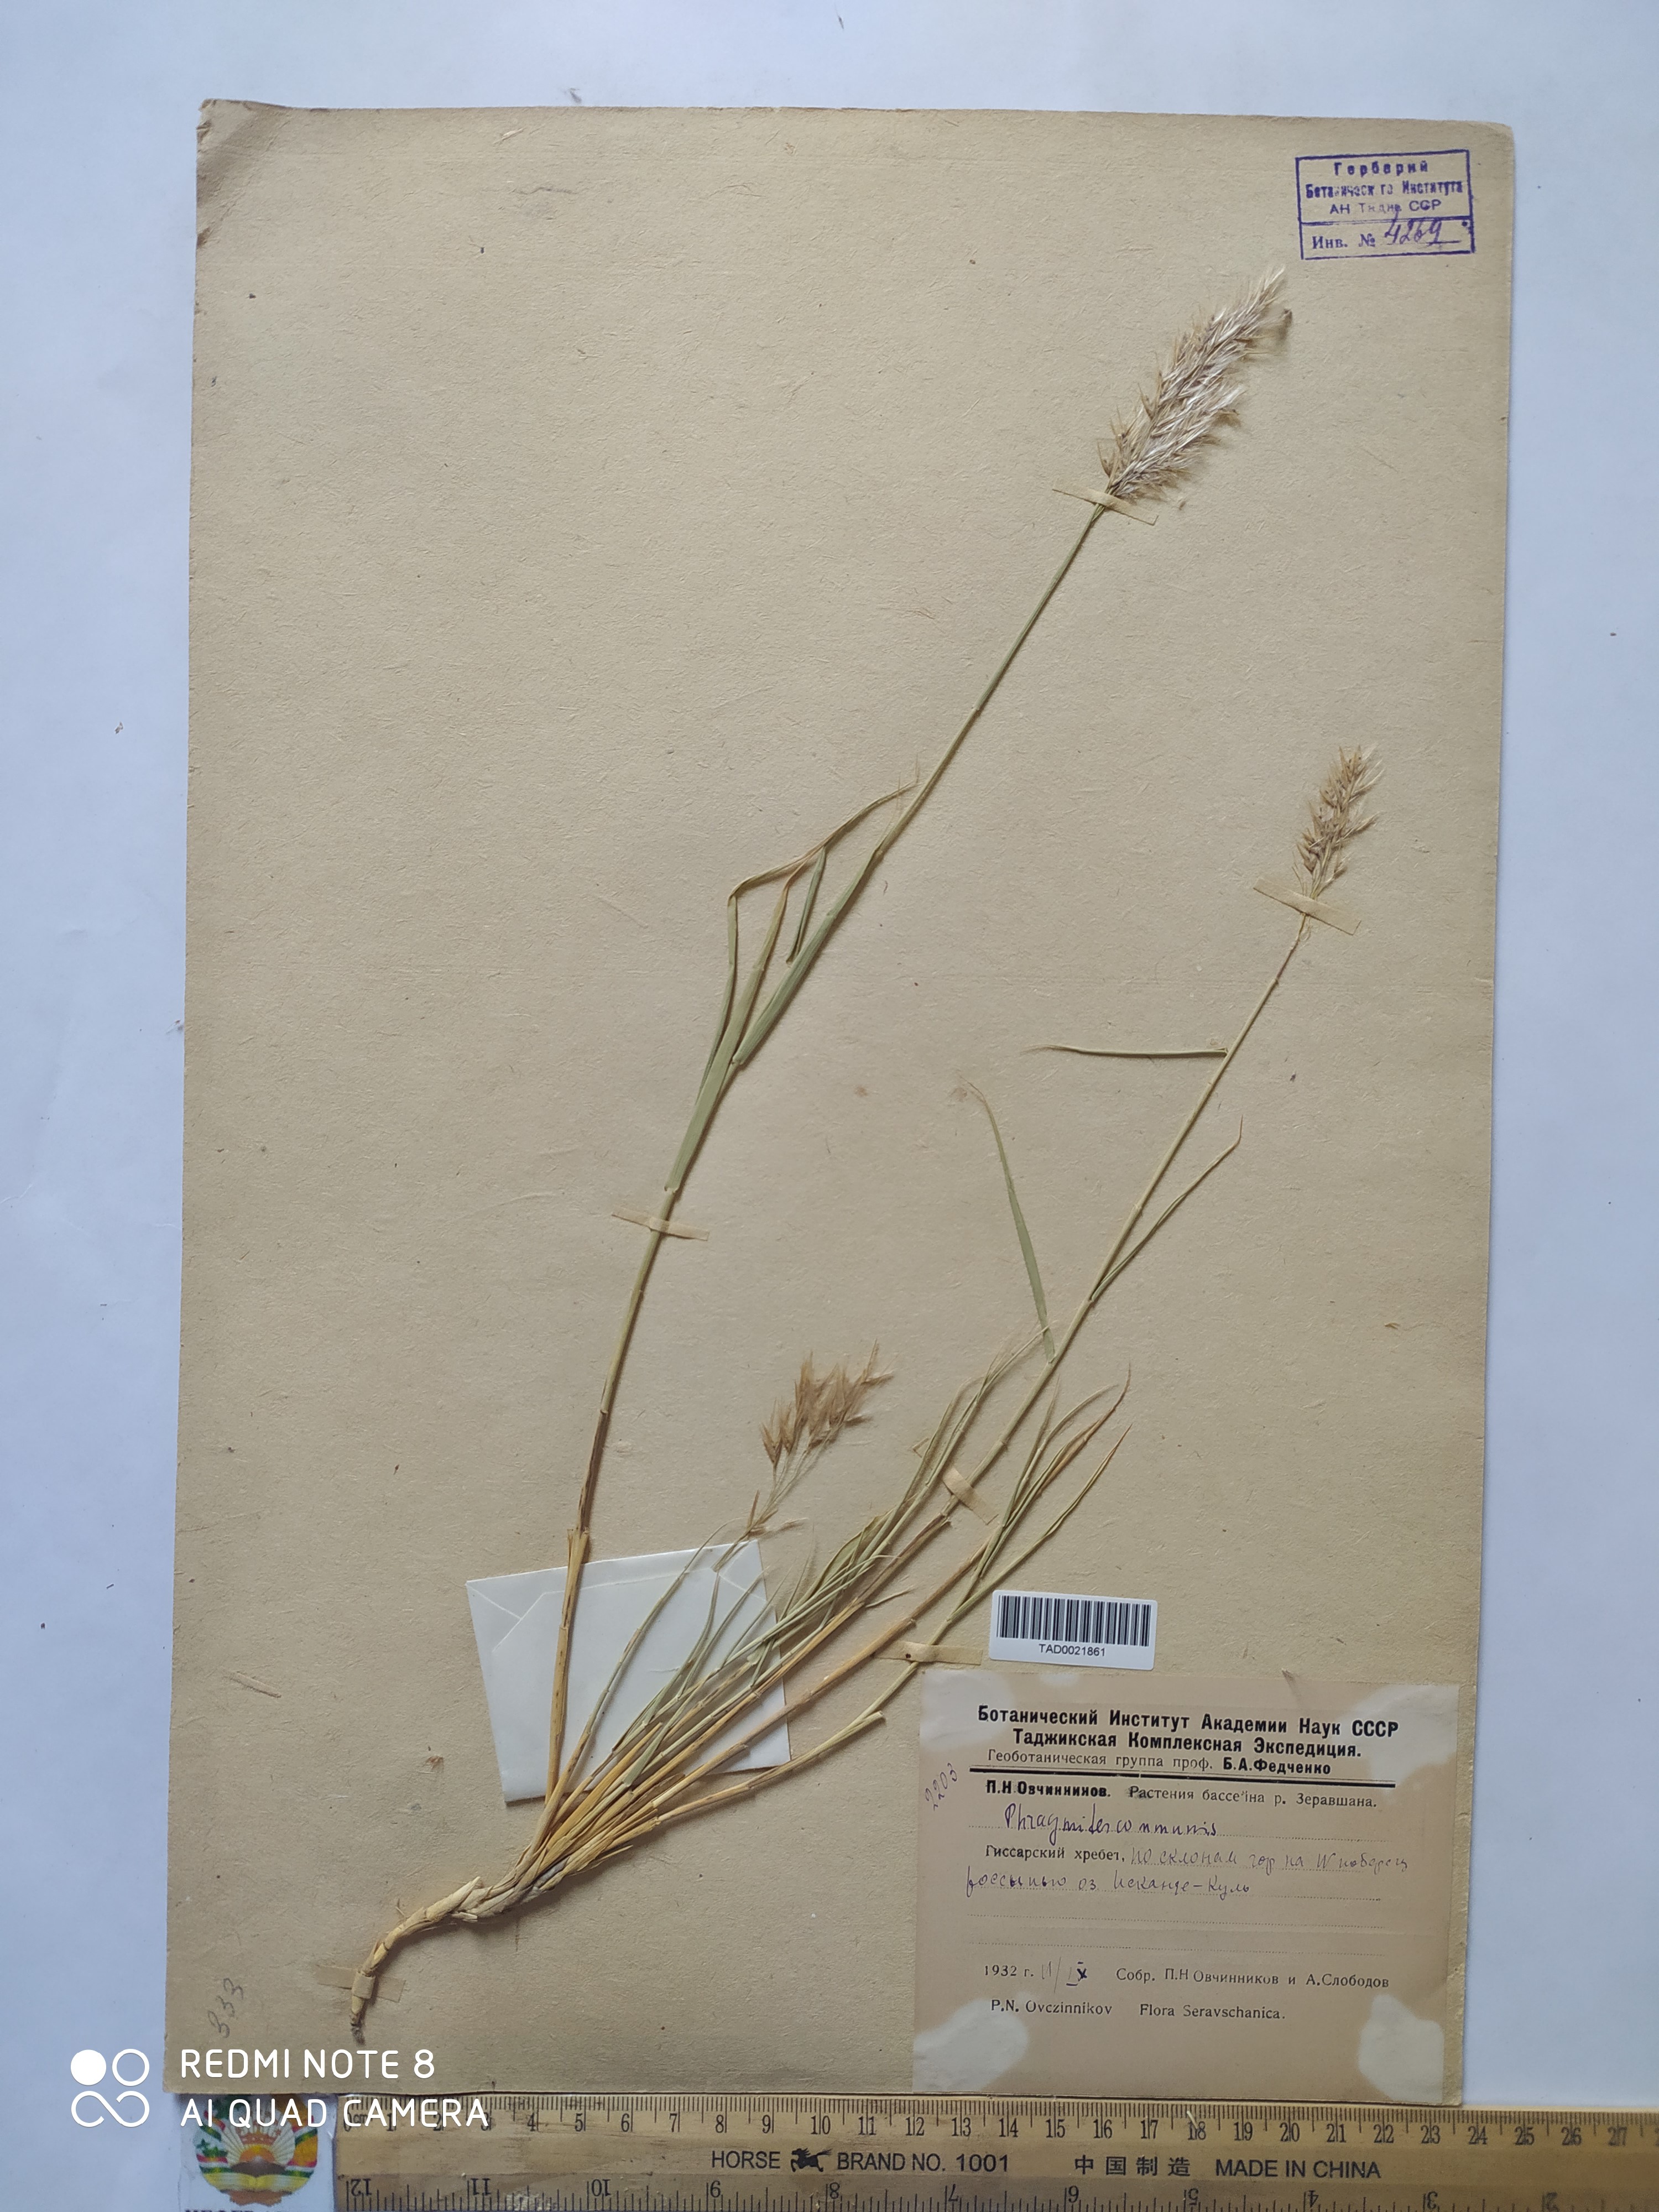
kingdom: Plantae
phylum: Tracheophyta
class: Liliopsida
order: Poales
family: Poaceae
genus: Phragmites
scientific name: Phragmites australis
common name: Common reed
